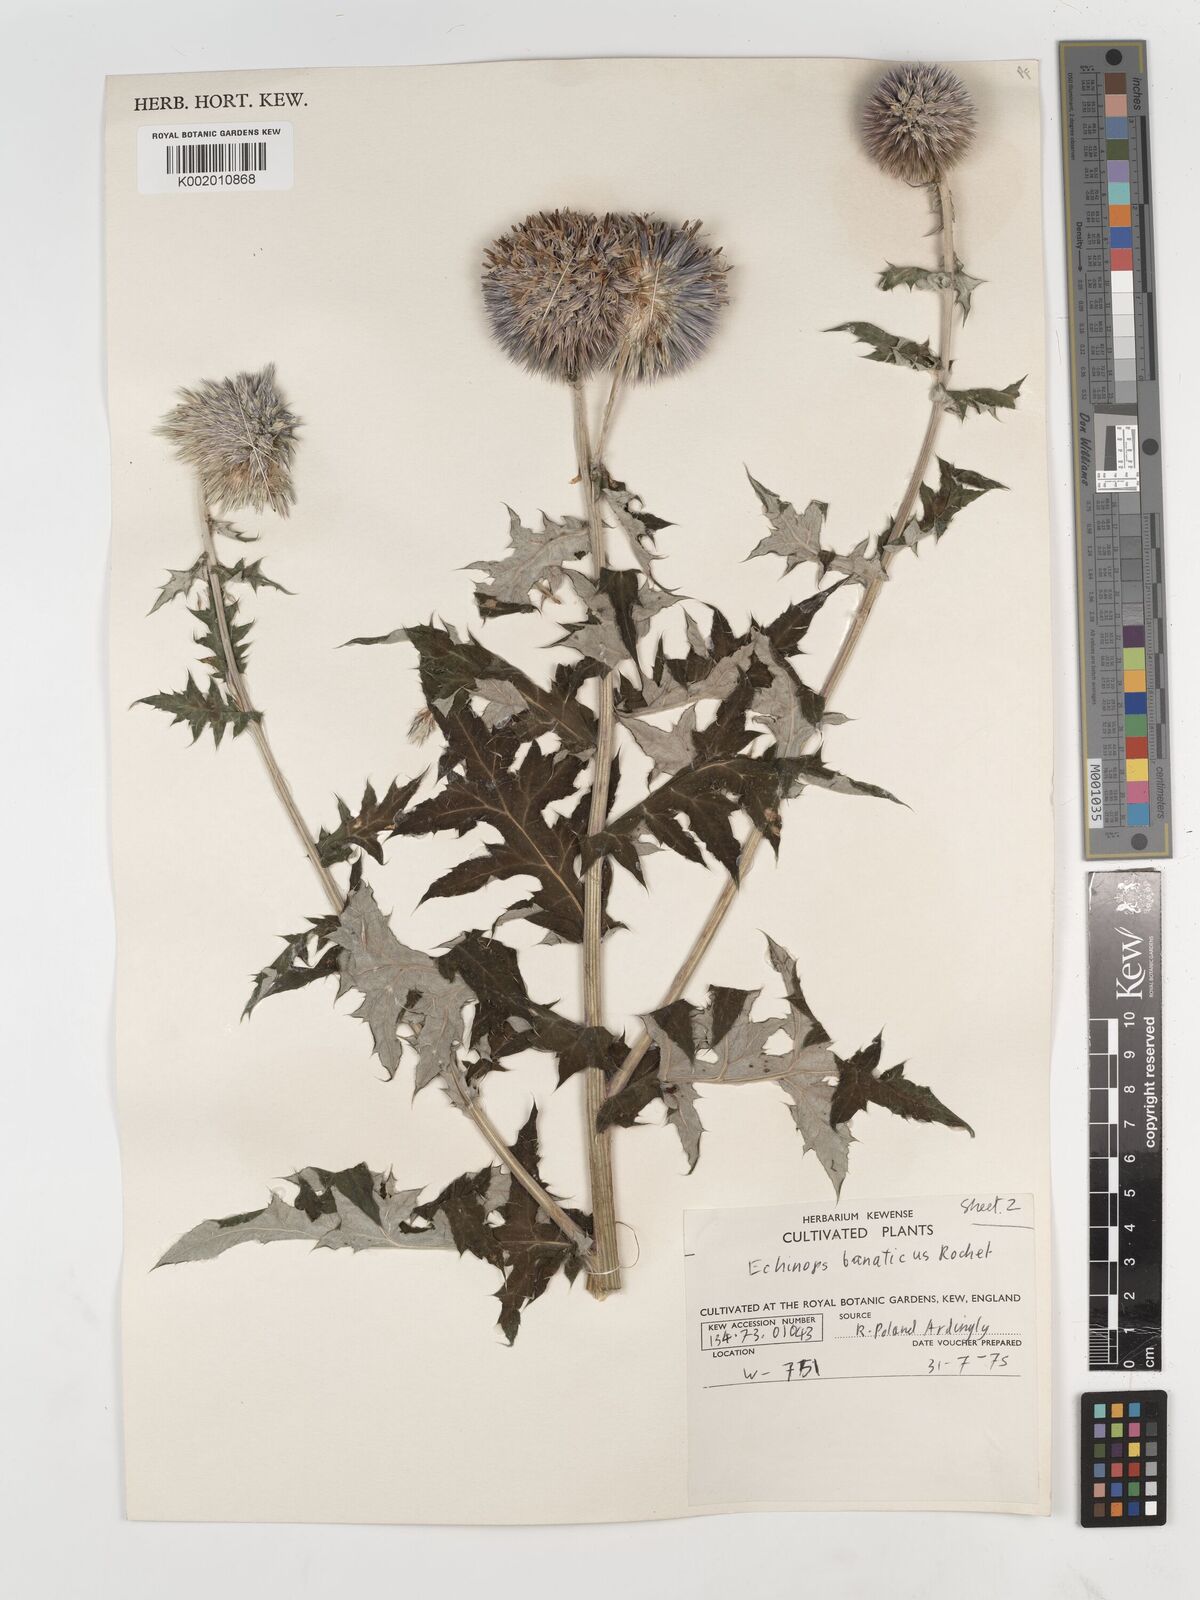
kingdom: Plantae
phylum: Tracheophyta
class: Magnoliopsida
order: Asterales
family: Asteraceae
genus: Echinops
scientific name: Echinops bannaticus
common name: Blue globe-thistle
